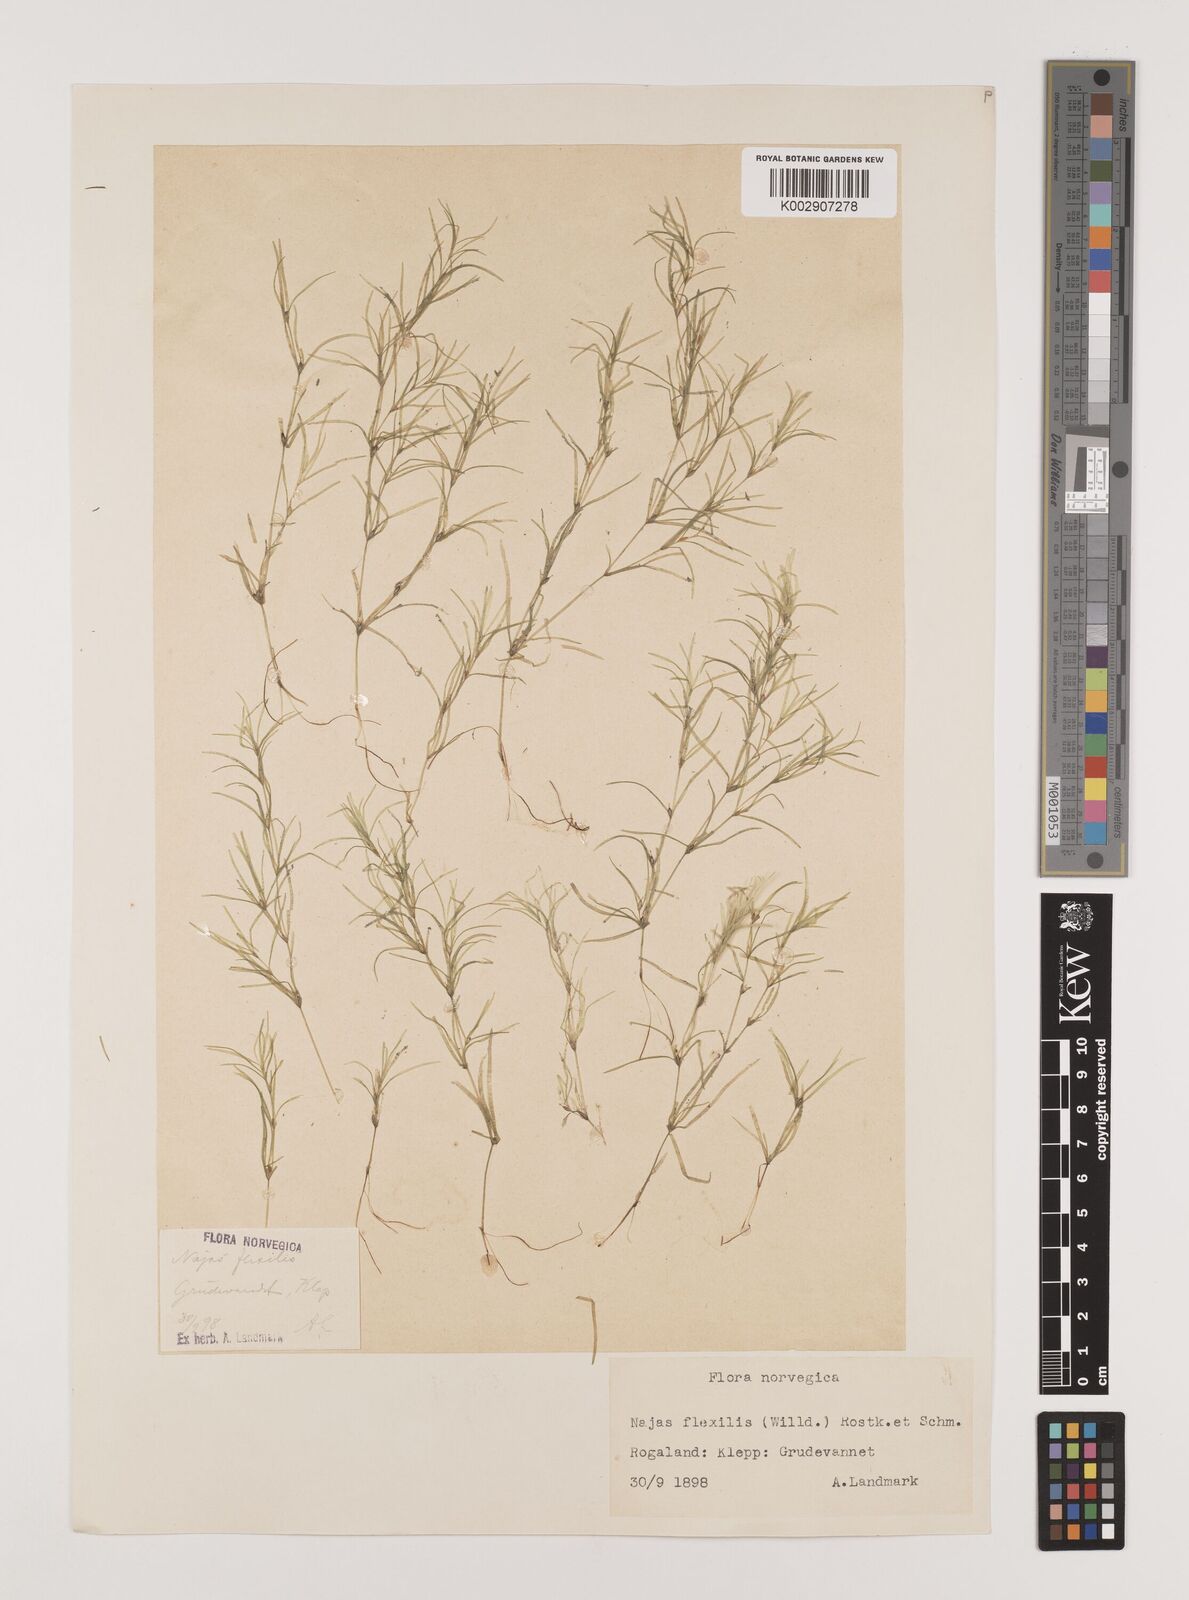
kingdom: Plantae
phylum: Tracheophyta
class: Liliopsida
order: Alismatales
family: Hydrocharitaceae
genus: Najas
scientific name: Najas flexilis
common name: Slender naiad
